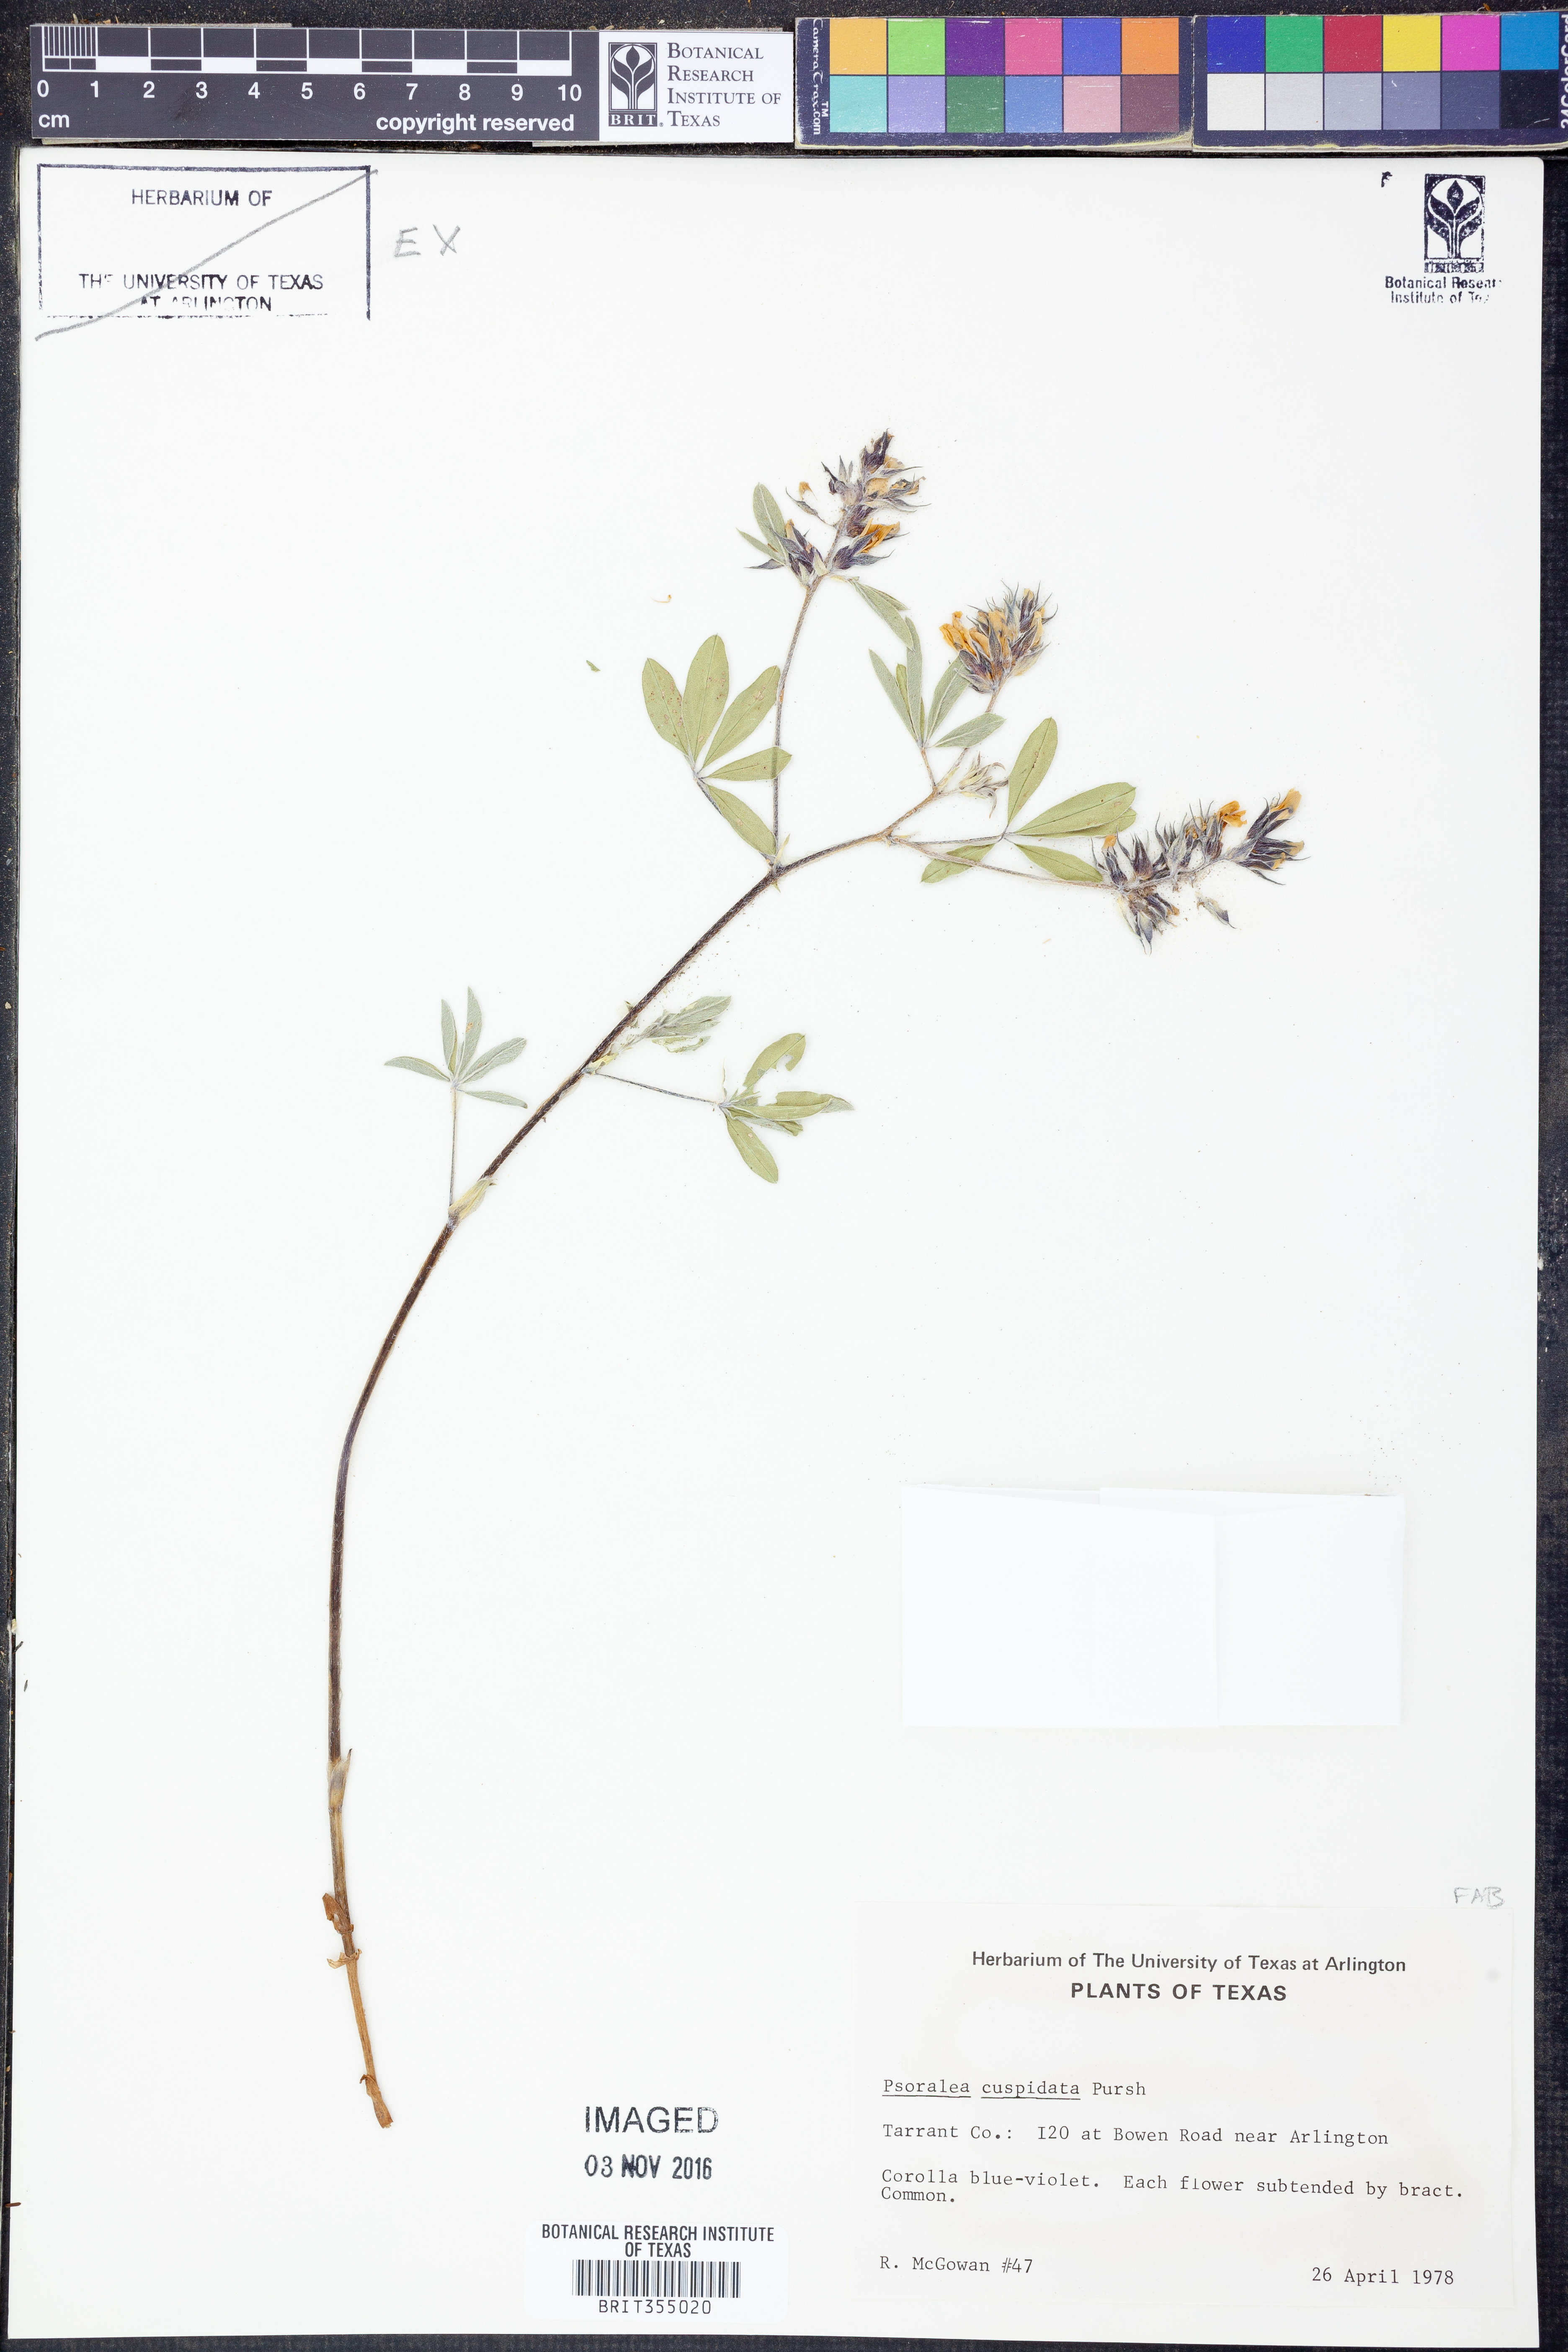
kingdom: Plantae
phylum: Tracheophyta
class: Magnoliopsida
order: Fabales
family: Fabaceae
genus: Pediomelum
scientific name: Pediomelum cuspidatum
